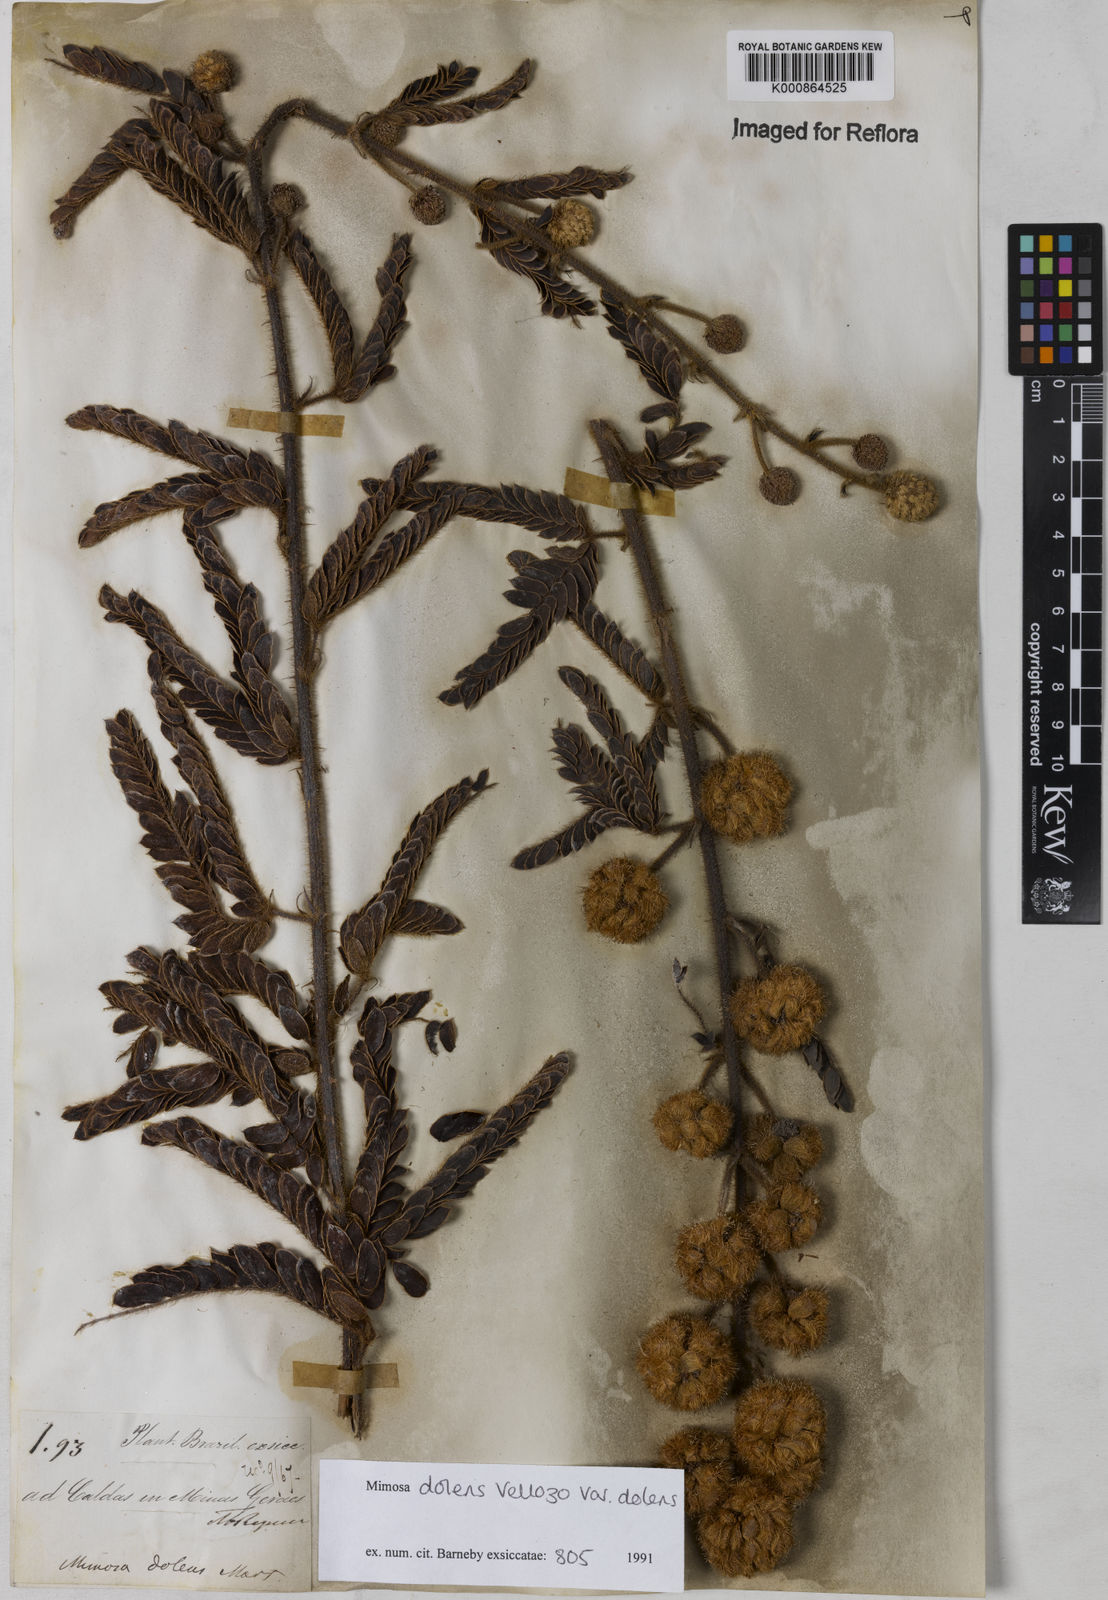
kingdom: Plantae
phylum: Tracheophyta
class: Magnoliopsida
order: Fabales
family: Fabaceae
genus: Mimosa
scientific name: Mimosa dolens
